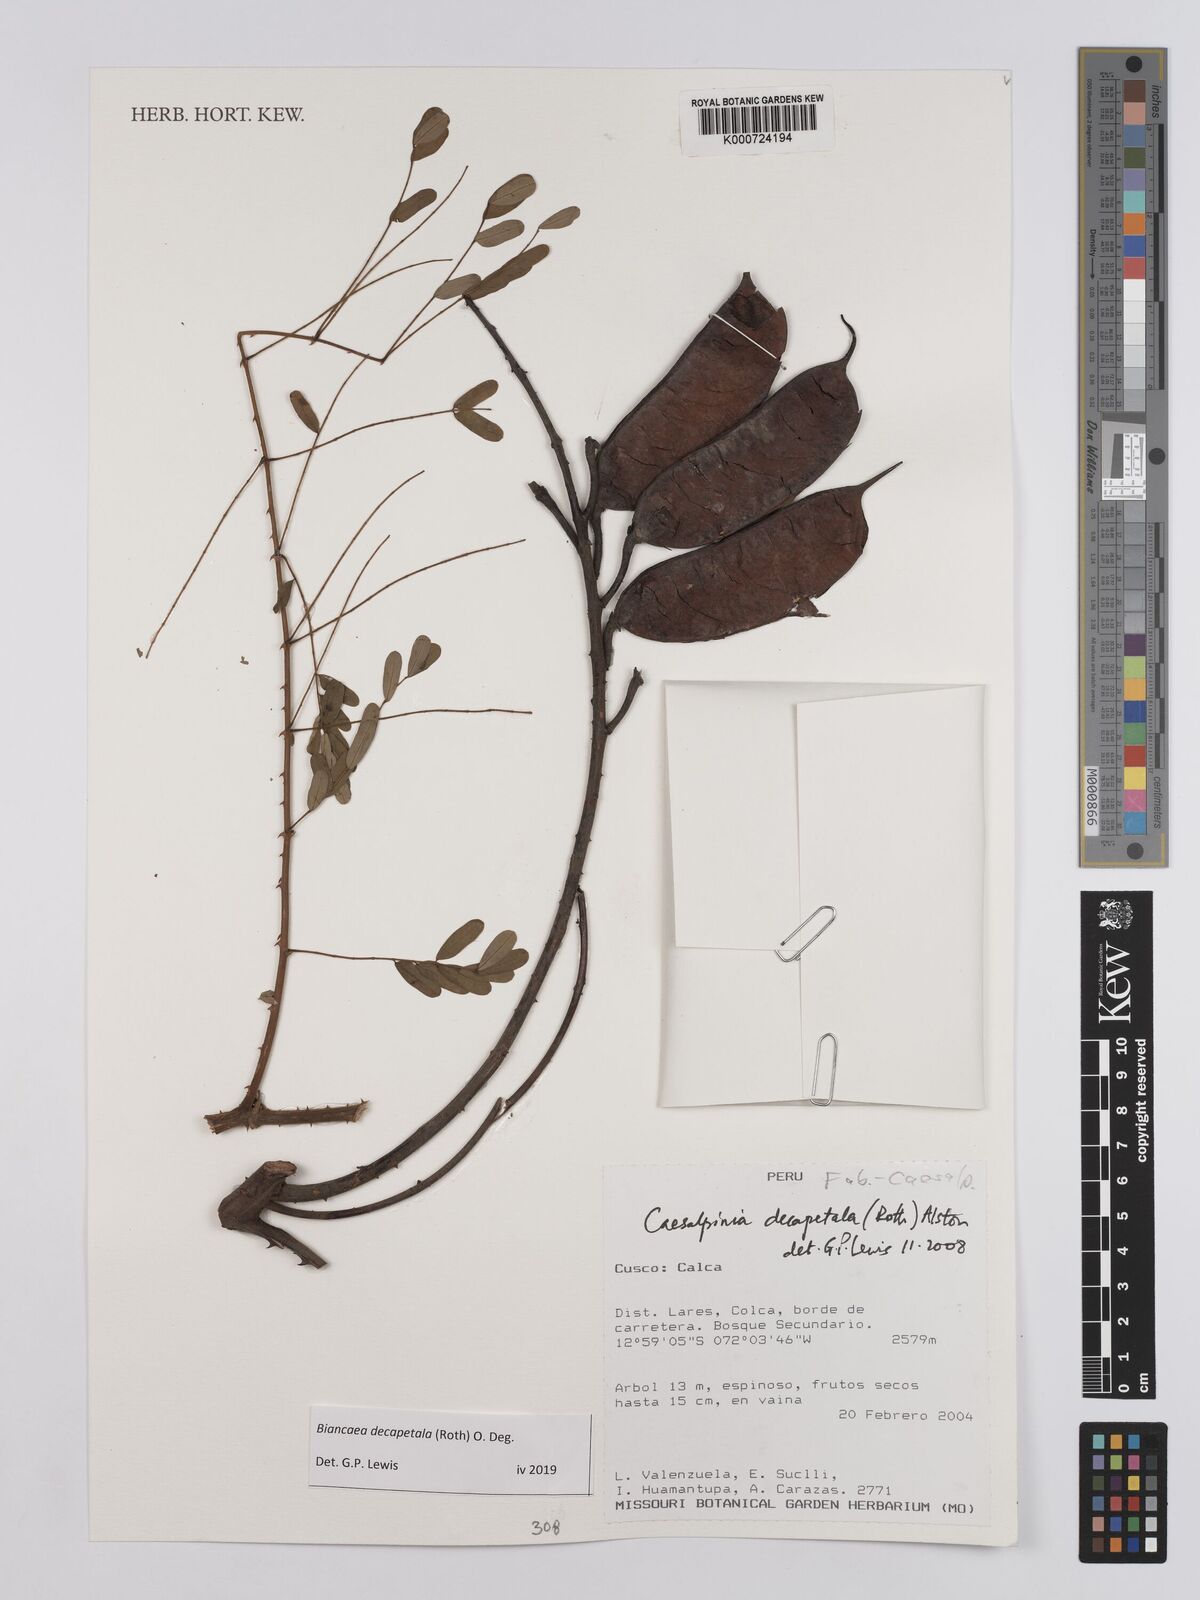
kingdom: Plantae
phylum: Tracheophyta
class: Magnoliopsida
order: Fabales
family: Fabaceae
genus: Biancaea
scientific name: Biancaea decapetala
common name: Cat's claw
